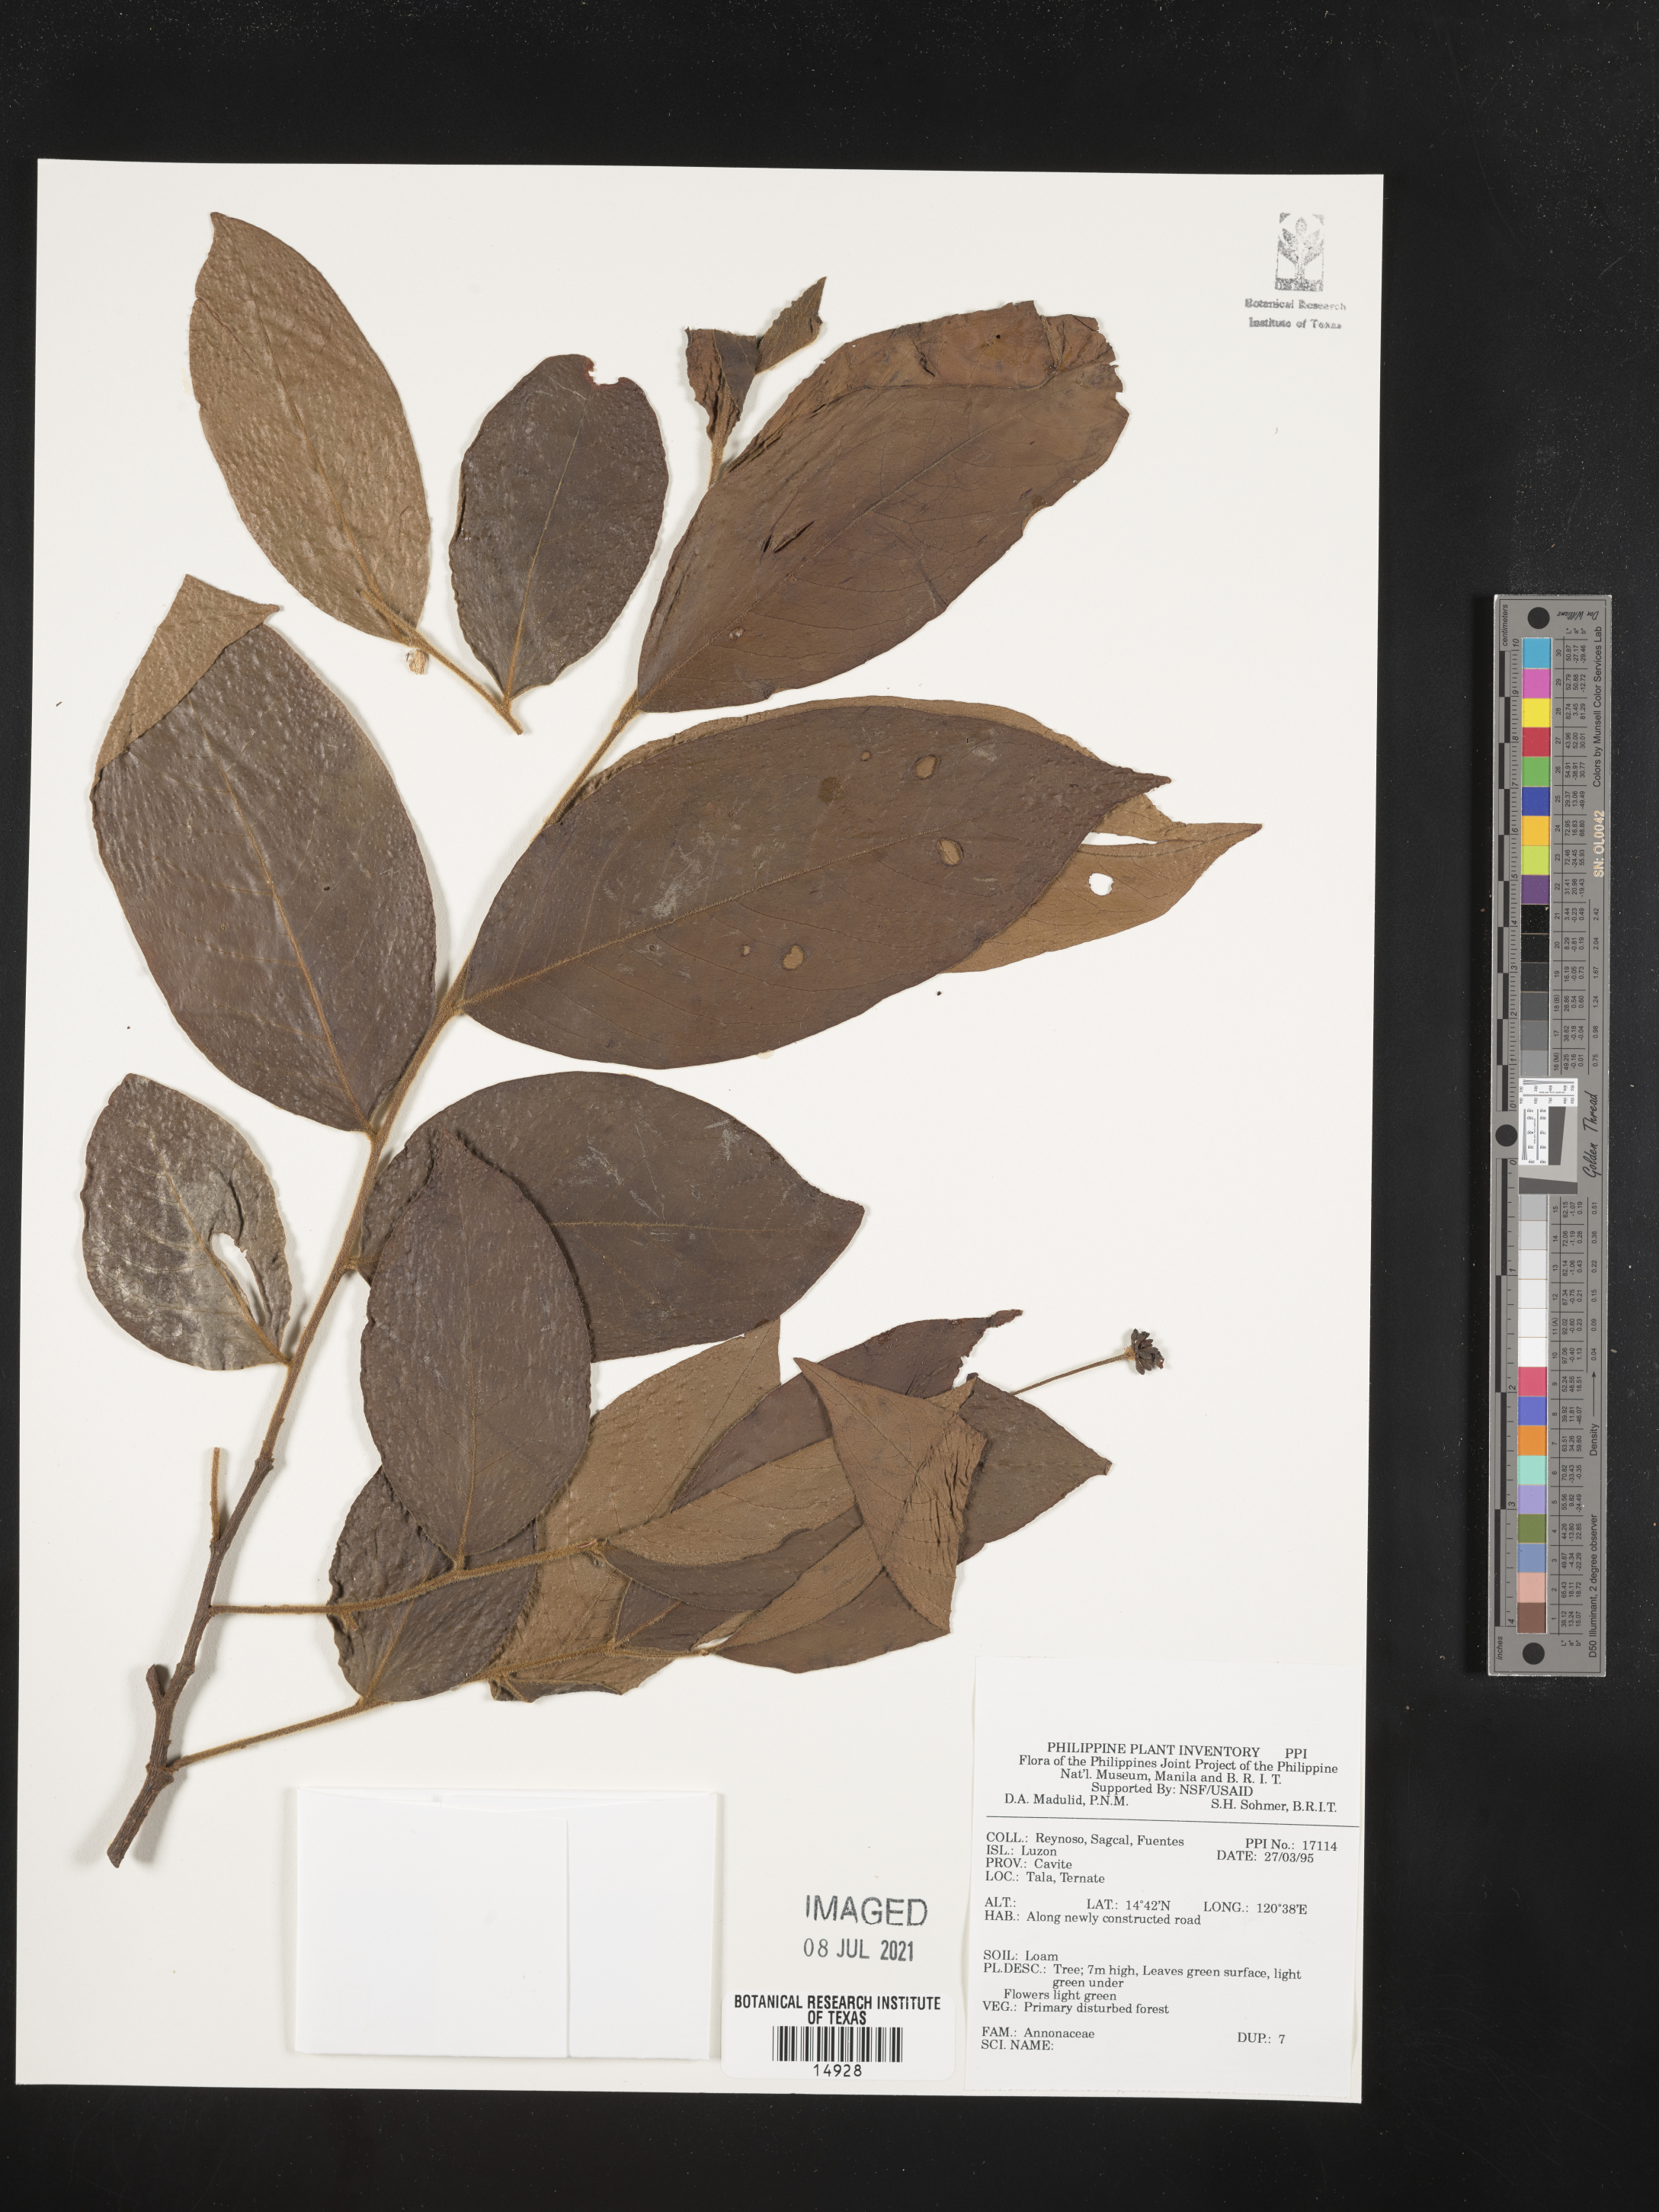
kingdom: Plantae
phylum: Tracheophyta
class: Magnoliopsida
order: Magnoliales
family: Annonaceae
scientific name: Annonaceae
